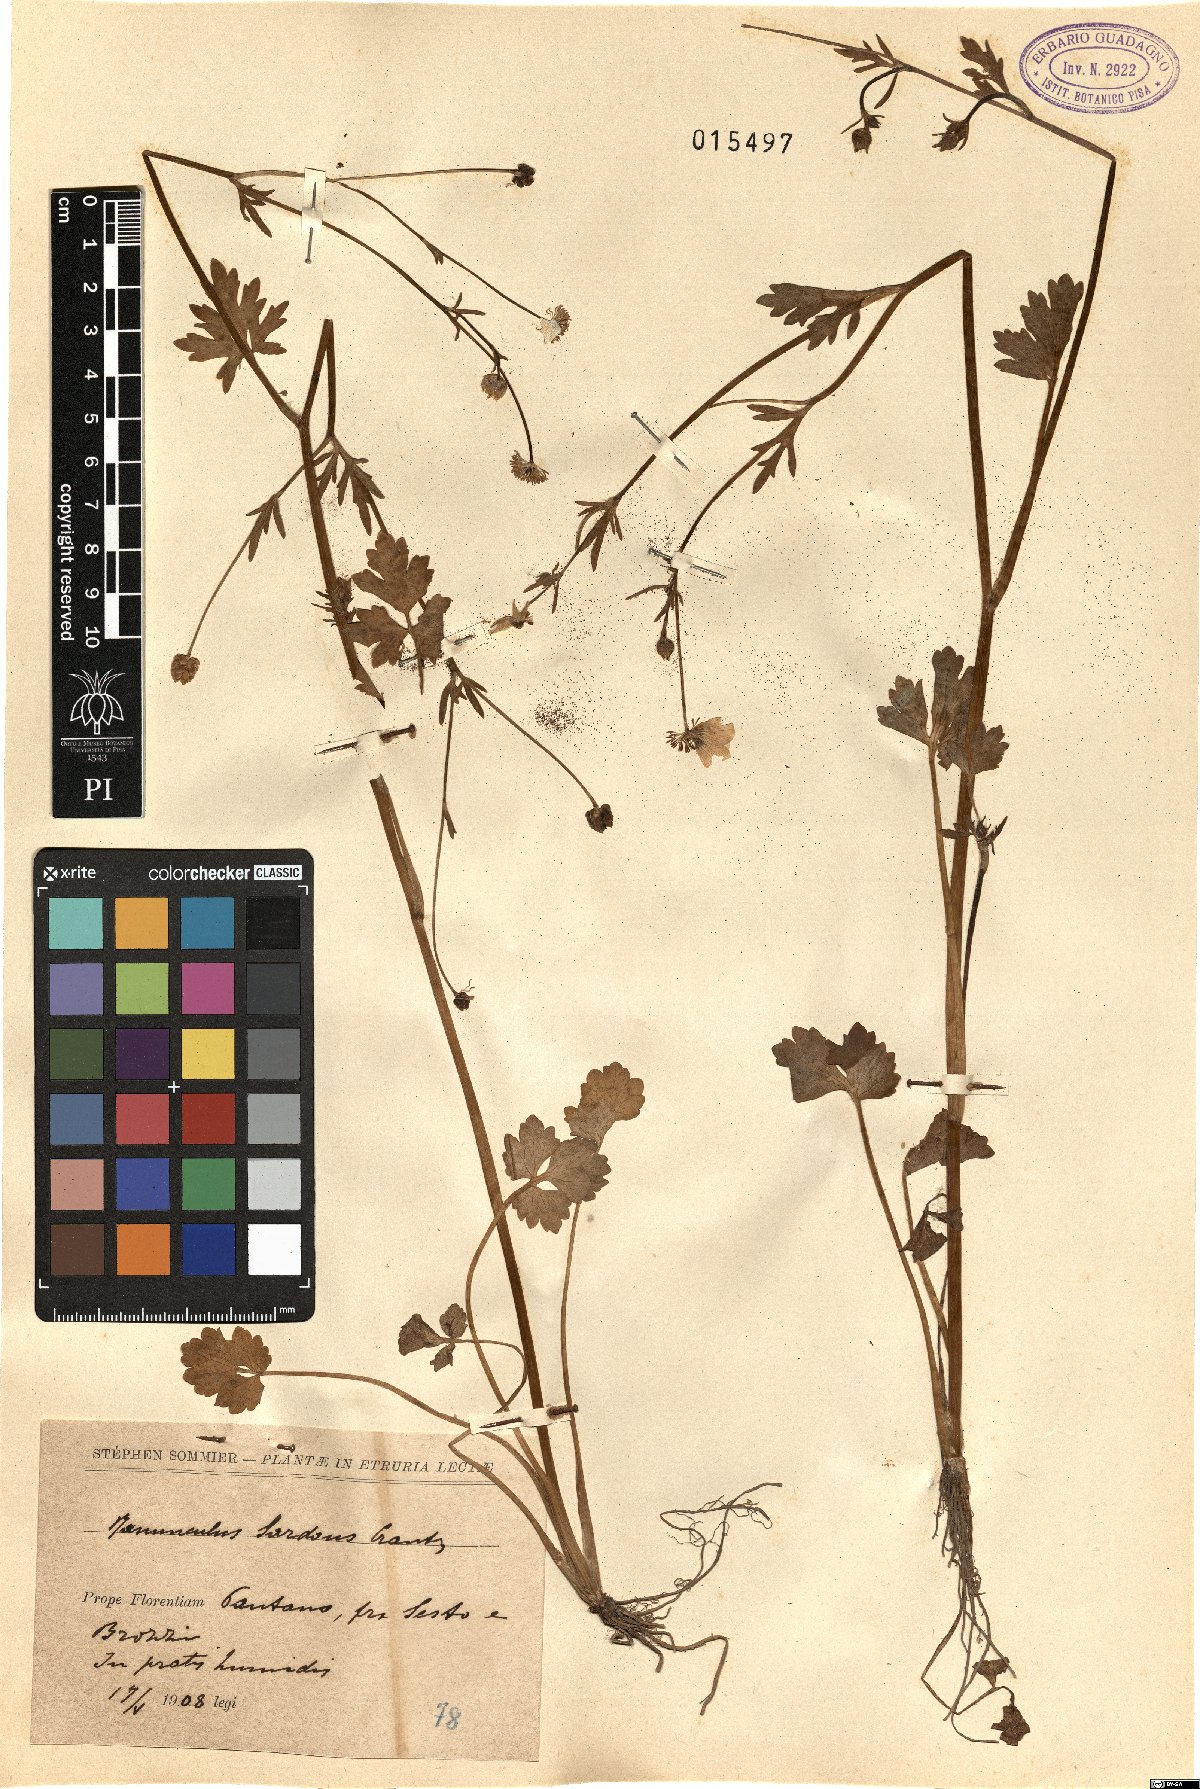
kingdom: Plantae
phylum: Tracheophyta
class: Magnoliopsida
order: Ranunculales
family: Ranunculaceae
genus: Ranunculus
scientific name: Ranunculus sardous
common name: Hairy buttercup
